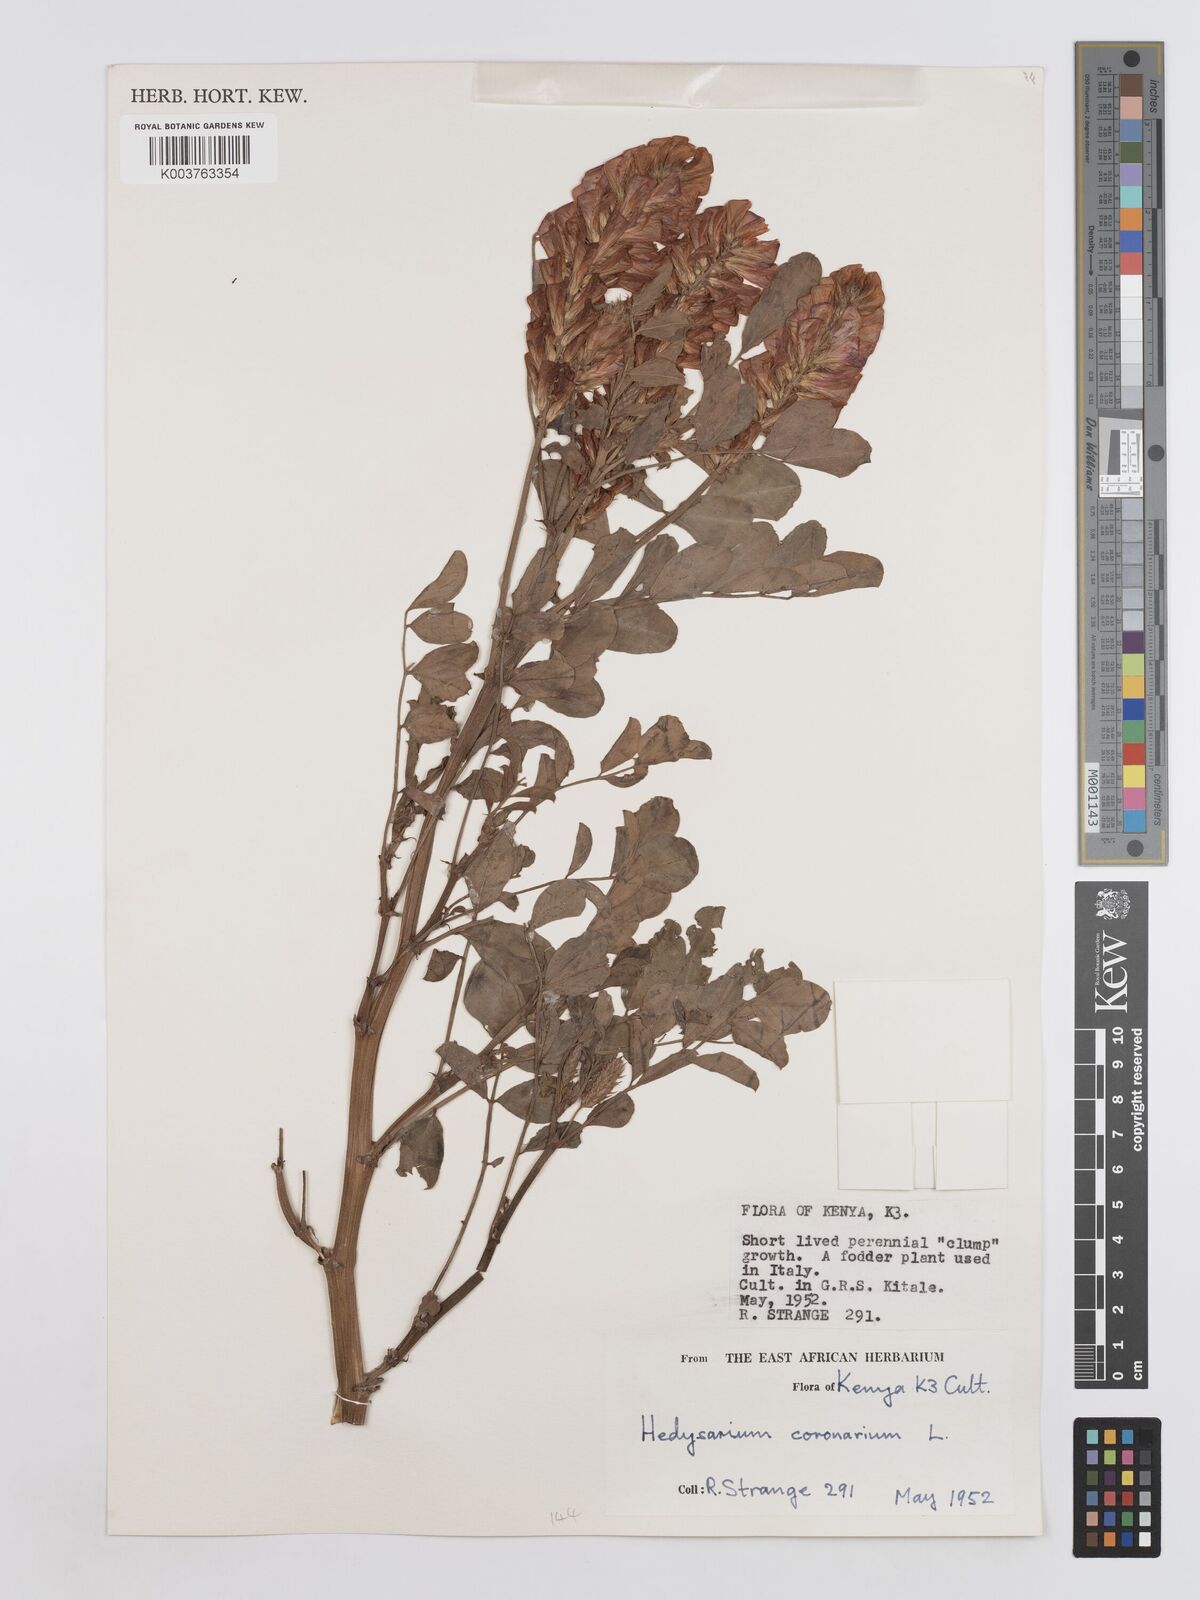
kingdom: Plantae
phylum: Tracheophyta
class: Magnoliopsida
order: Fabales
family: Fabaceae
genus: Sulla
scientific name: Sulla coronaria
